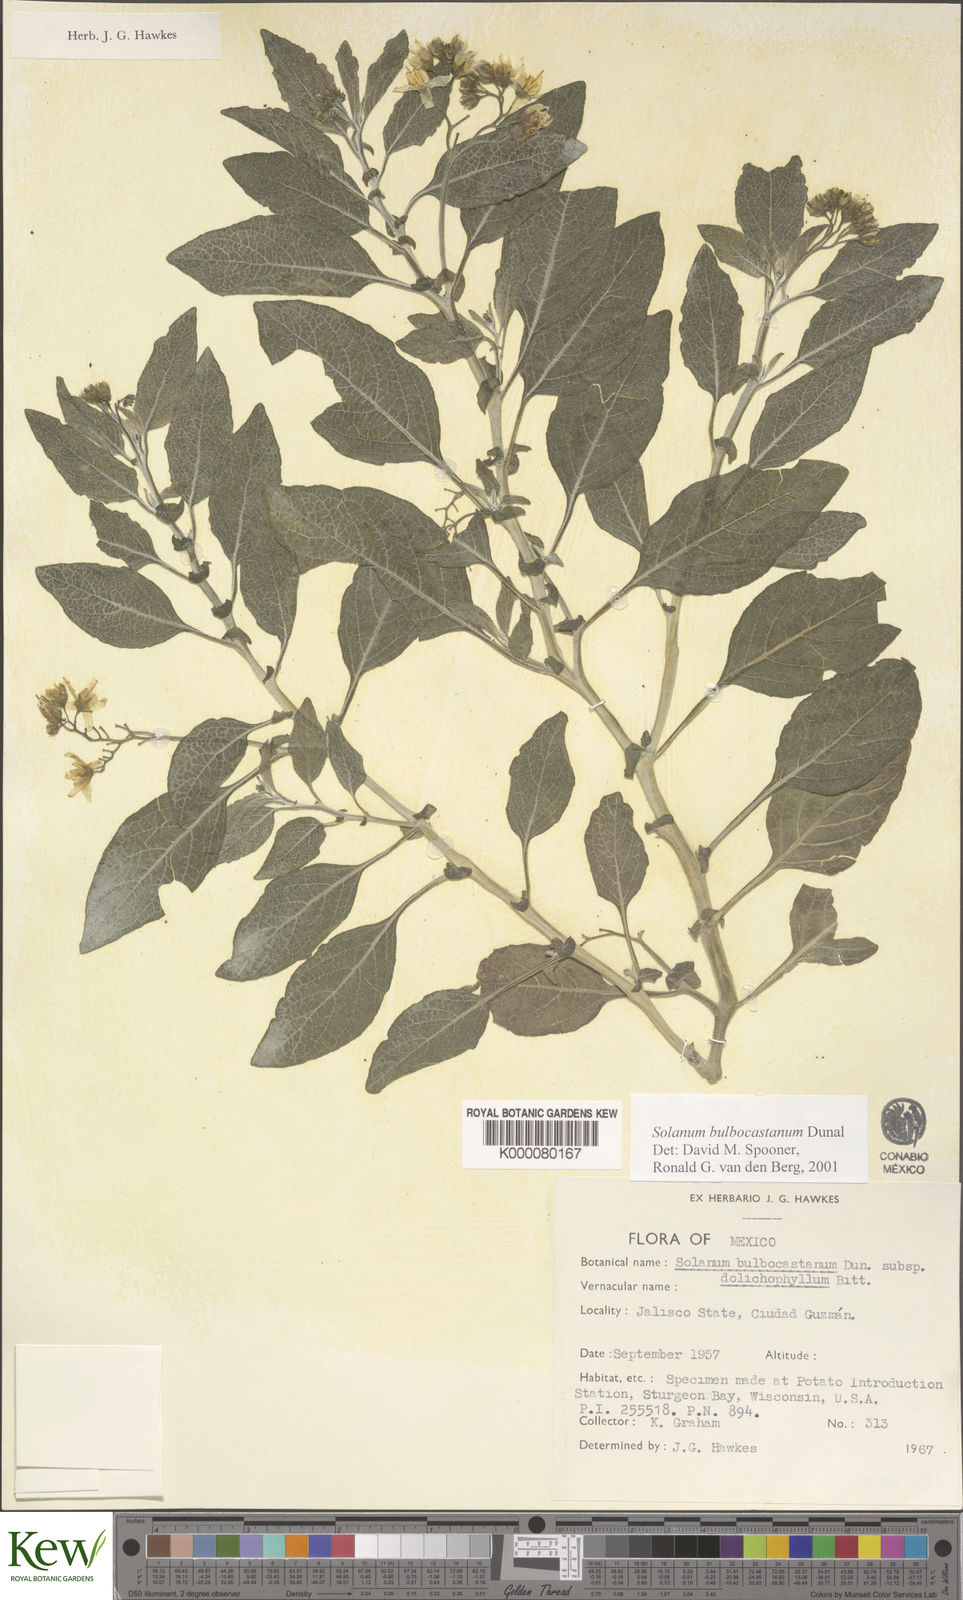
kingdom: Plantae
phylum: Tracheophyta
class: Magnoliopsida
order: Solanales
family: Solanaceae
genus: Solanum
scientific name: Solanum bulbocastanum
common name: Ornamental nightshade
